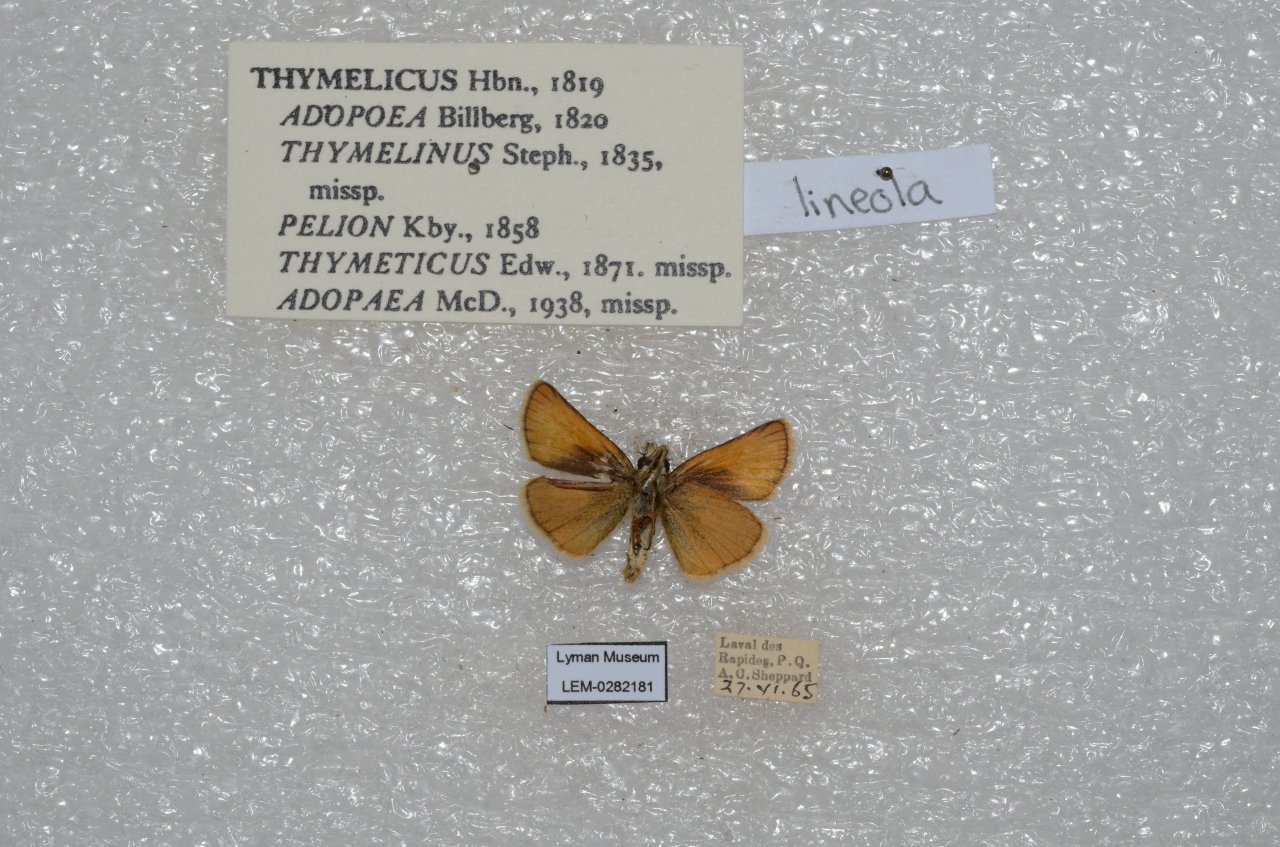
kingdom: Animalia
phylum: Arthropoda
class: Insecta
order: Lepidoptera
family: Hesperiidae
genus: Thymelicus
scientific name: Thymelicus lineola
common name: European Skipper
